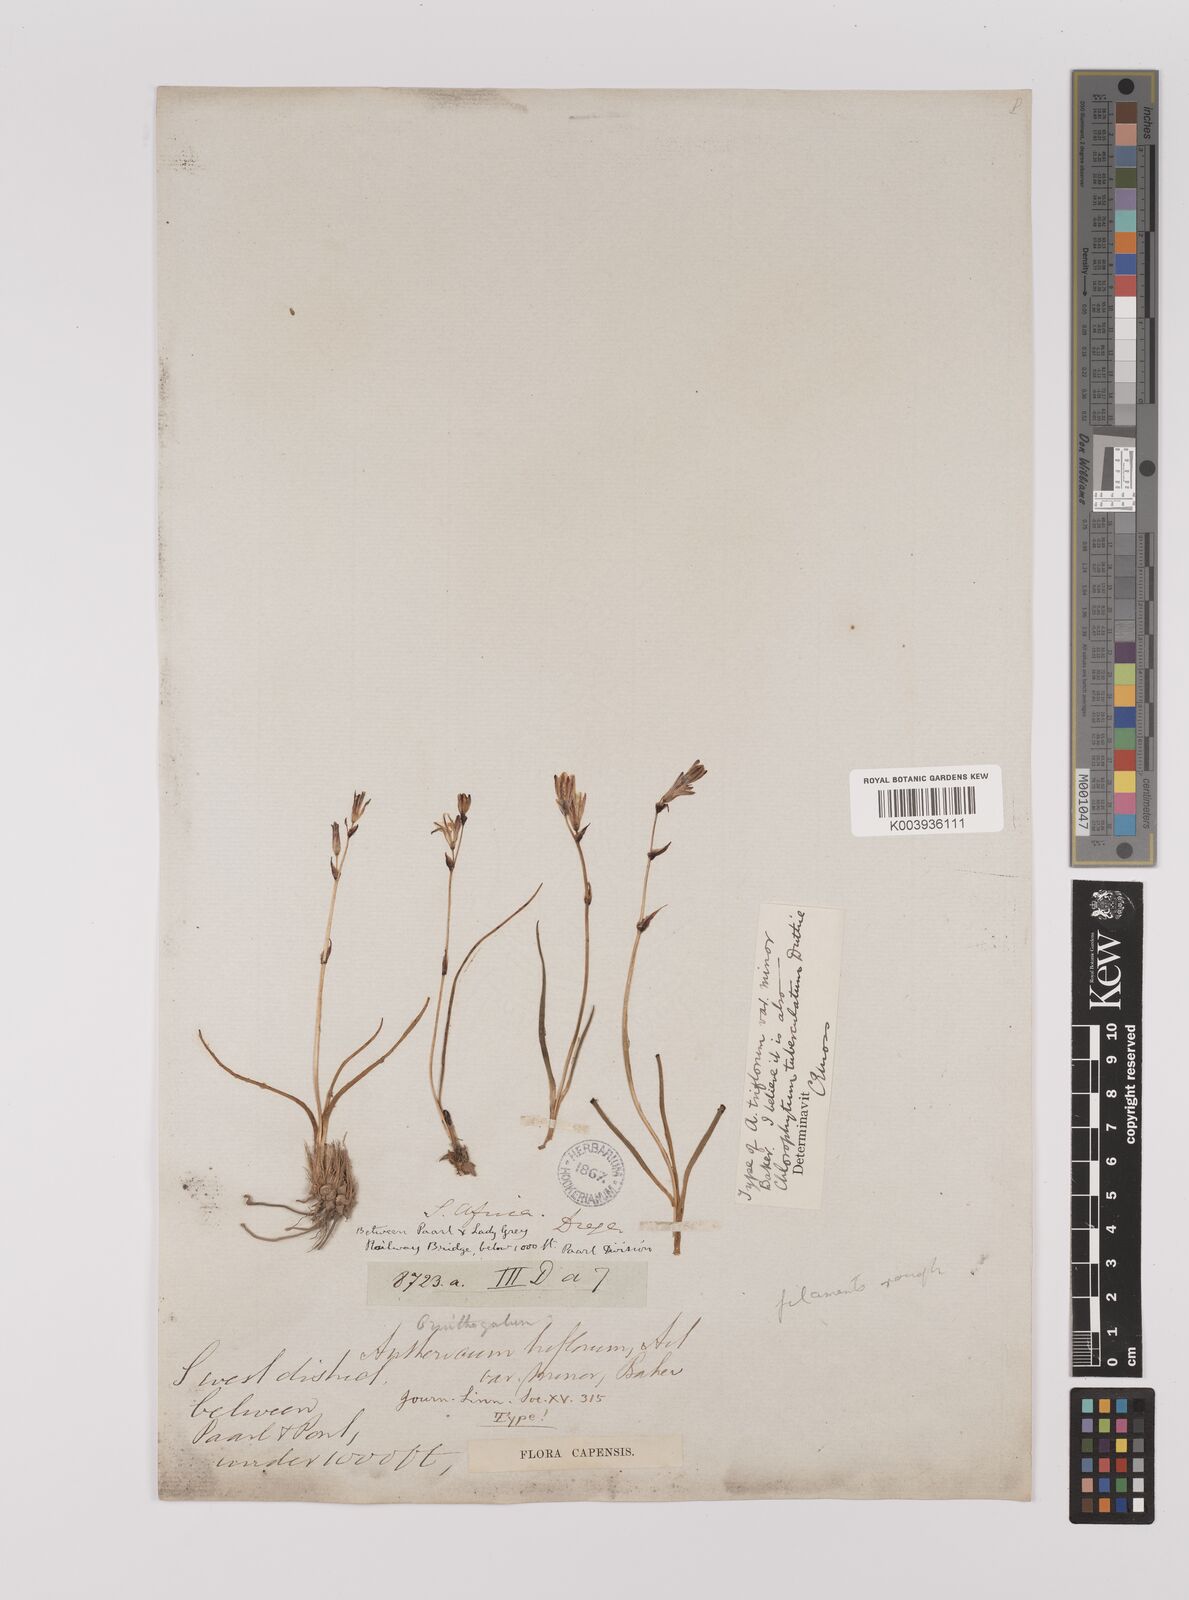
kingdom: Plantae
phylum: Tracheophyta
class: Liliopsida
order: Asparagales
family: Asparagaceae
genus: Chlorophytum
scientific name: Chlorophytum graminifolium
